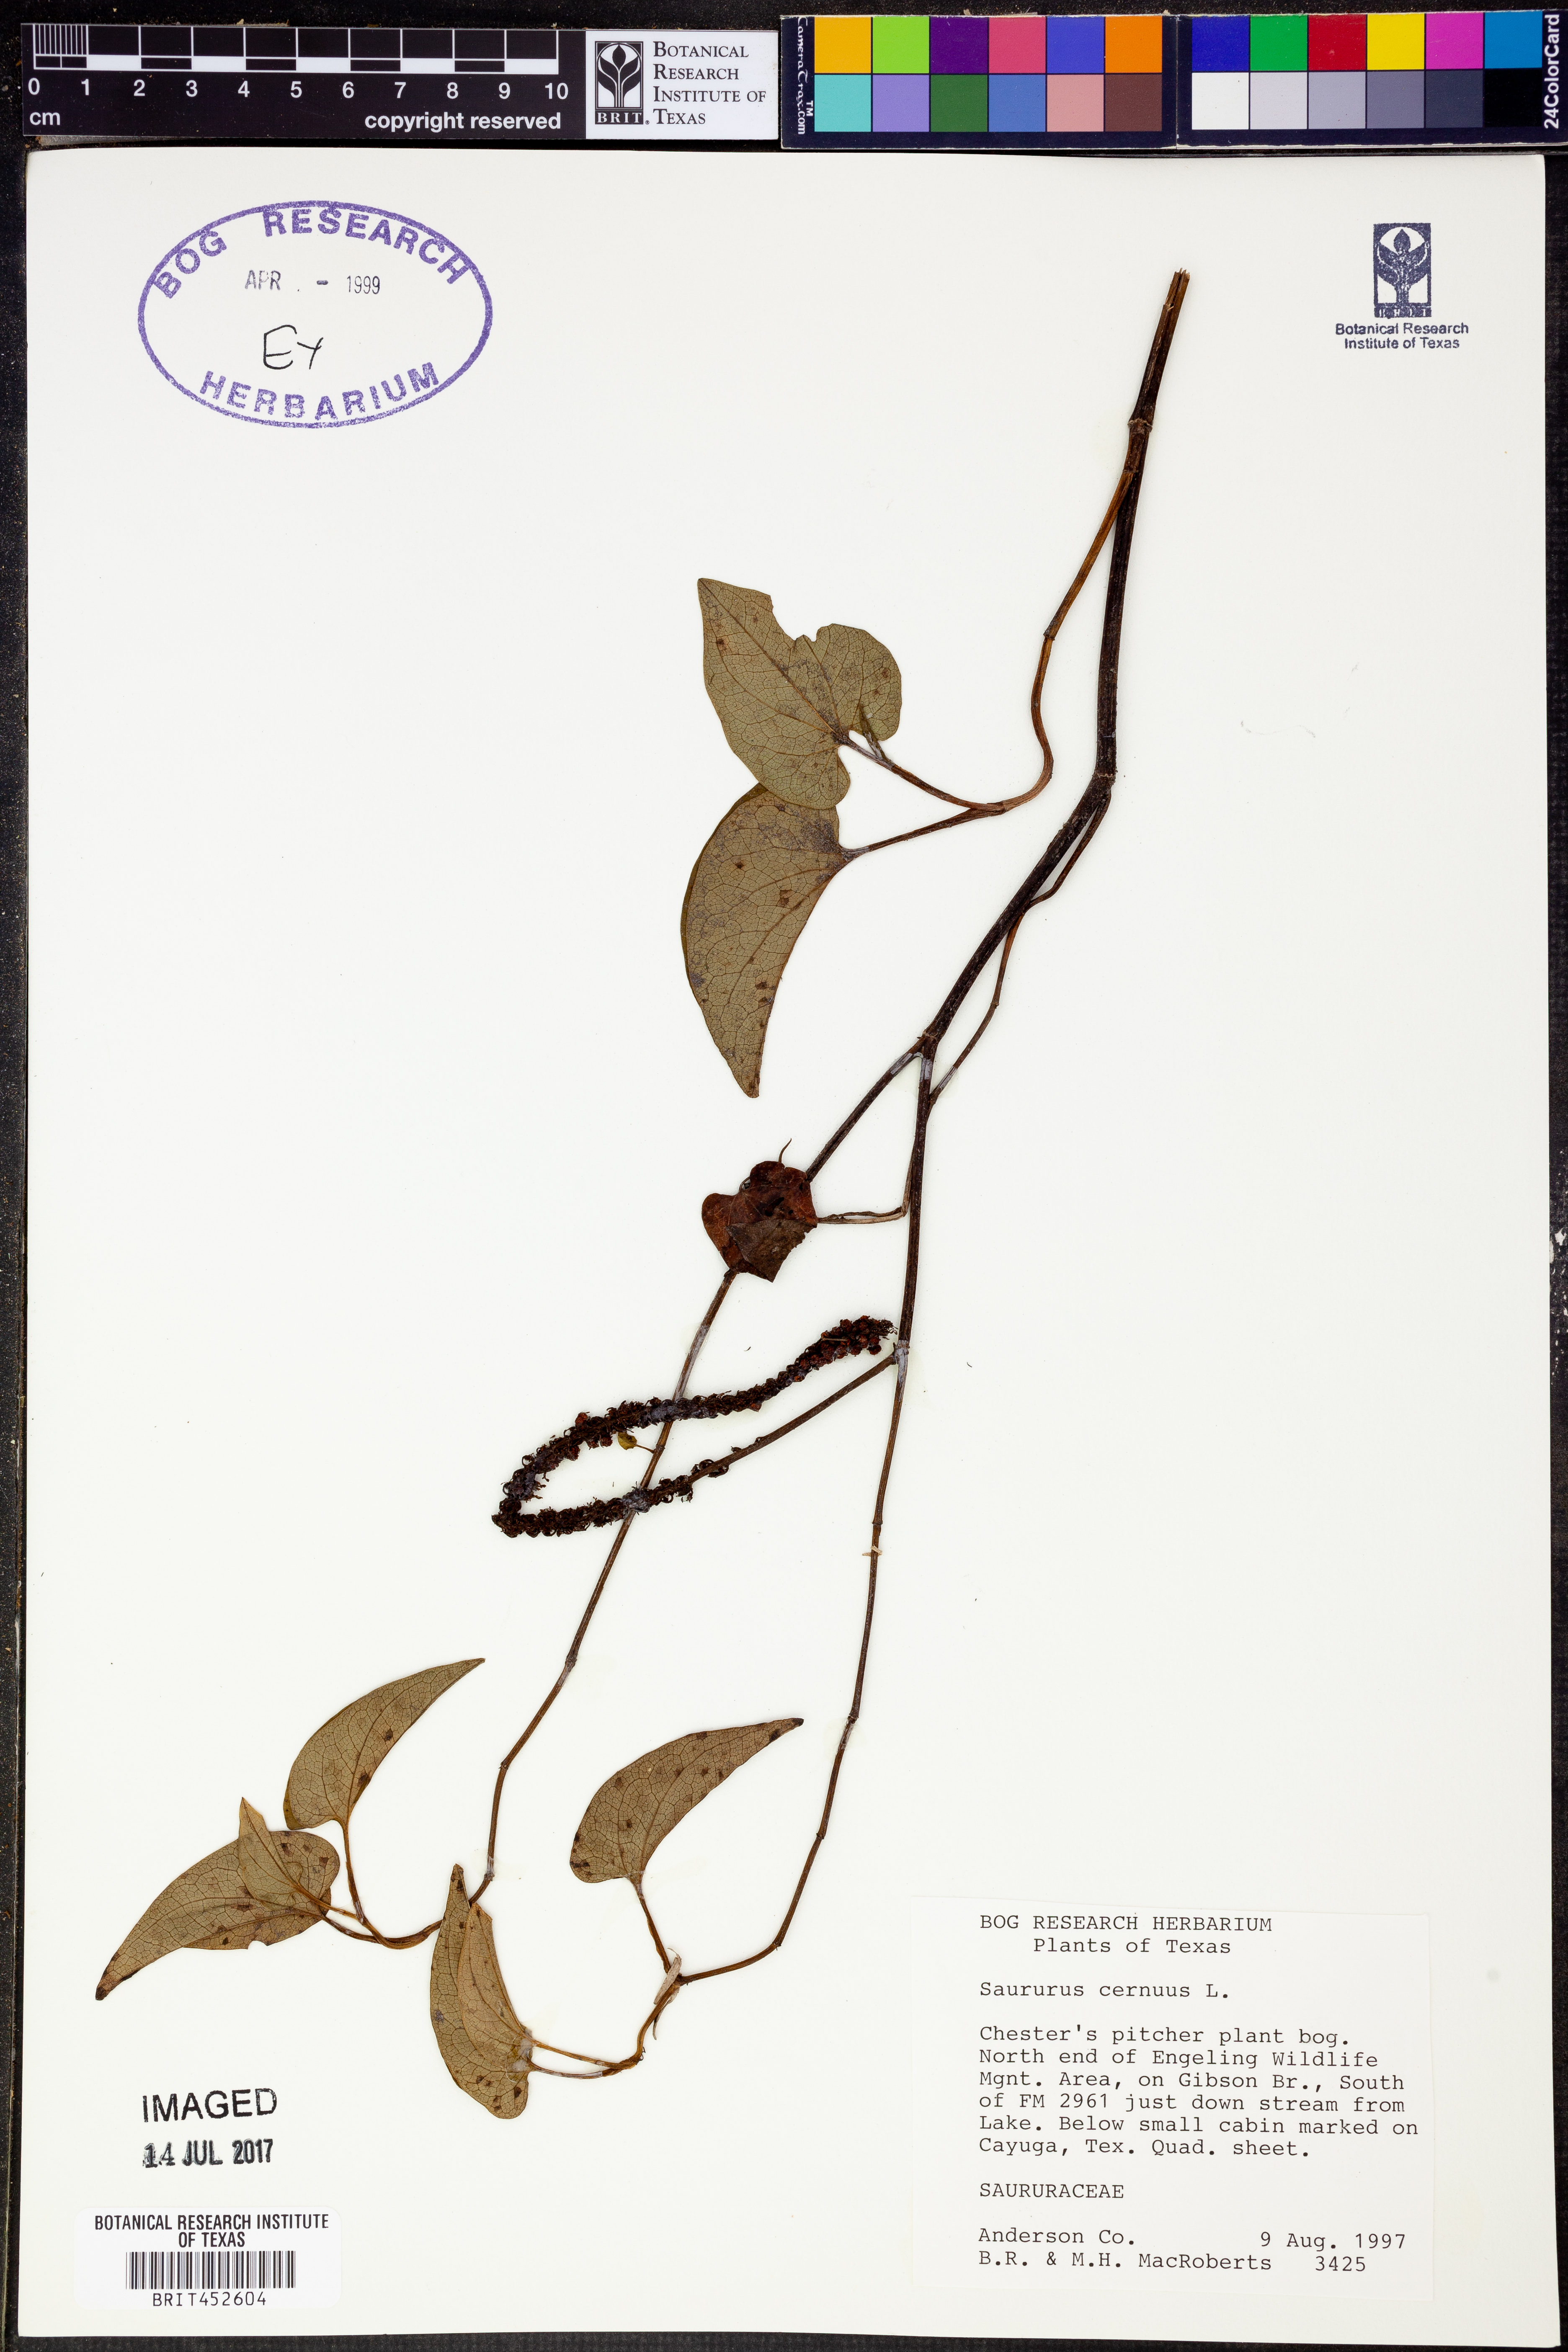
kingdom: Plantae
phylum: Tracheophyta
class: Magnoliopsida
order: Piperales
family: Saururaceae
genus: Saururus
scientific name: Saururus cernuus
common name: Lizard's-tail
